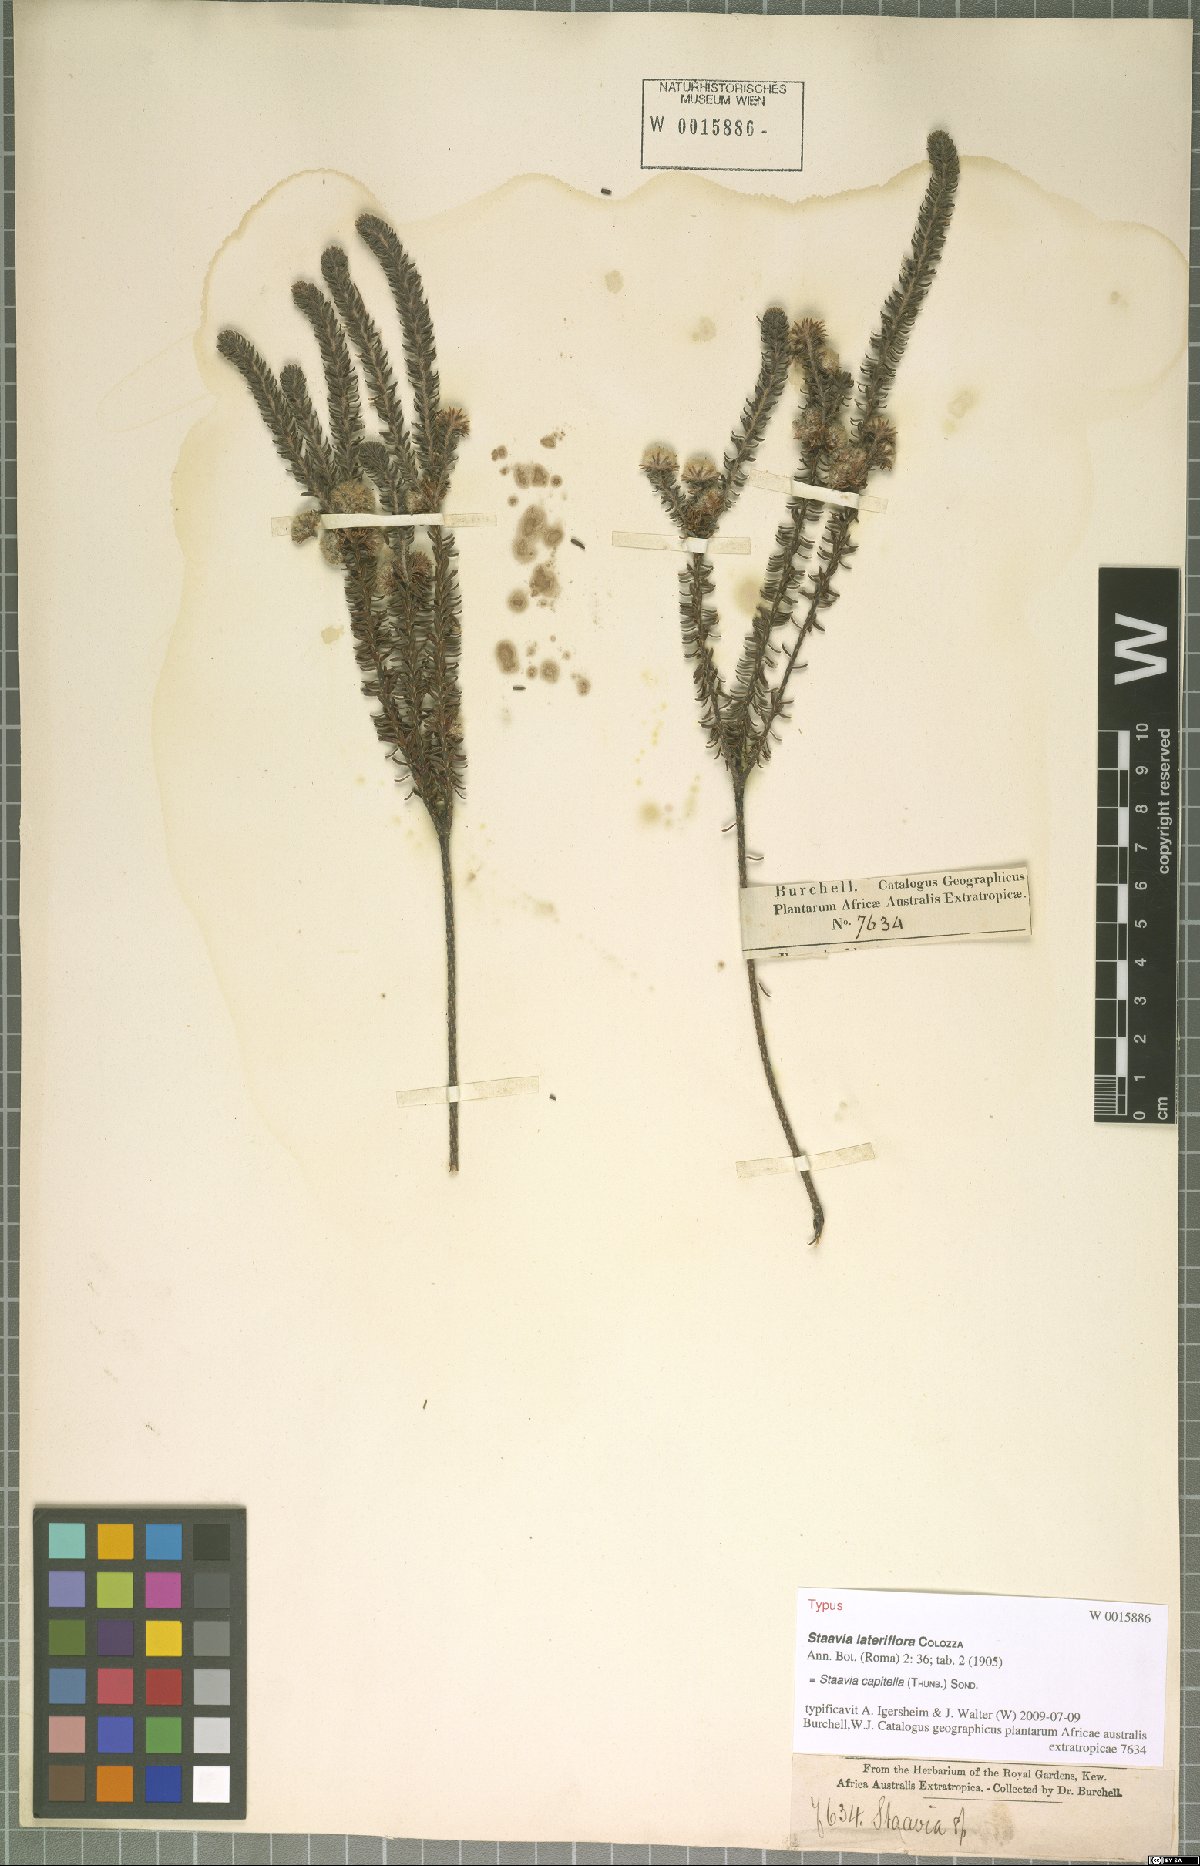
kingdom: Plantae
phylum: Tracheophyta
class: Magnoliopsida
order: Bruniales
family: Bruniaceae
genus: Staavia
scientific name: Staavia capitella
